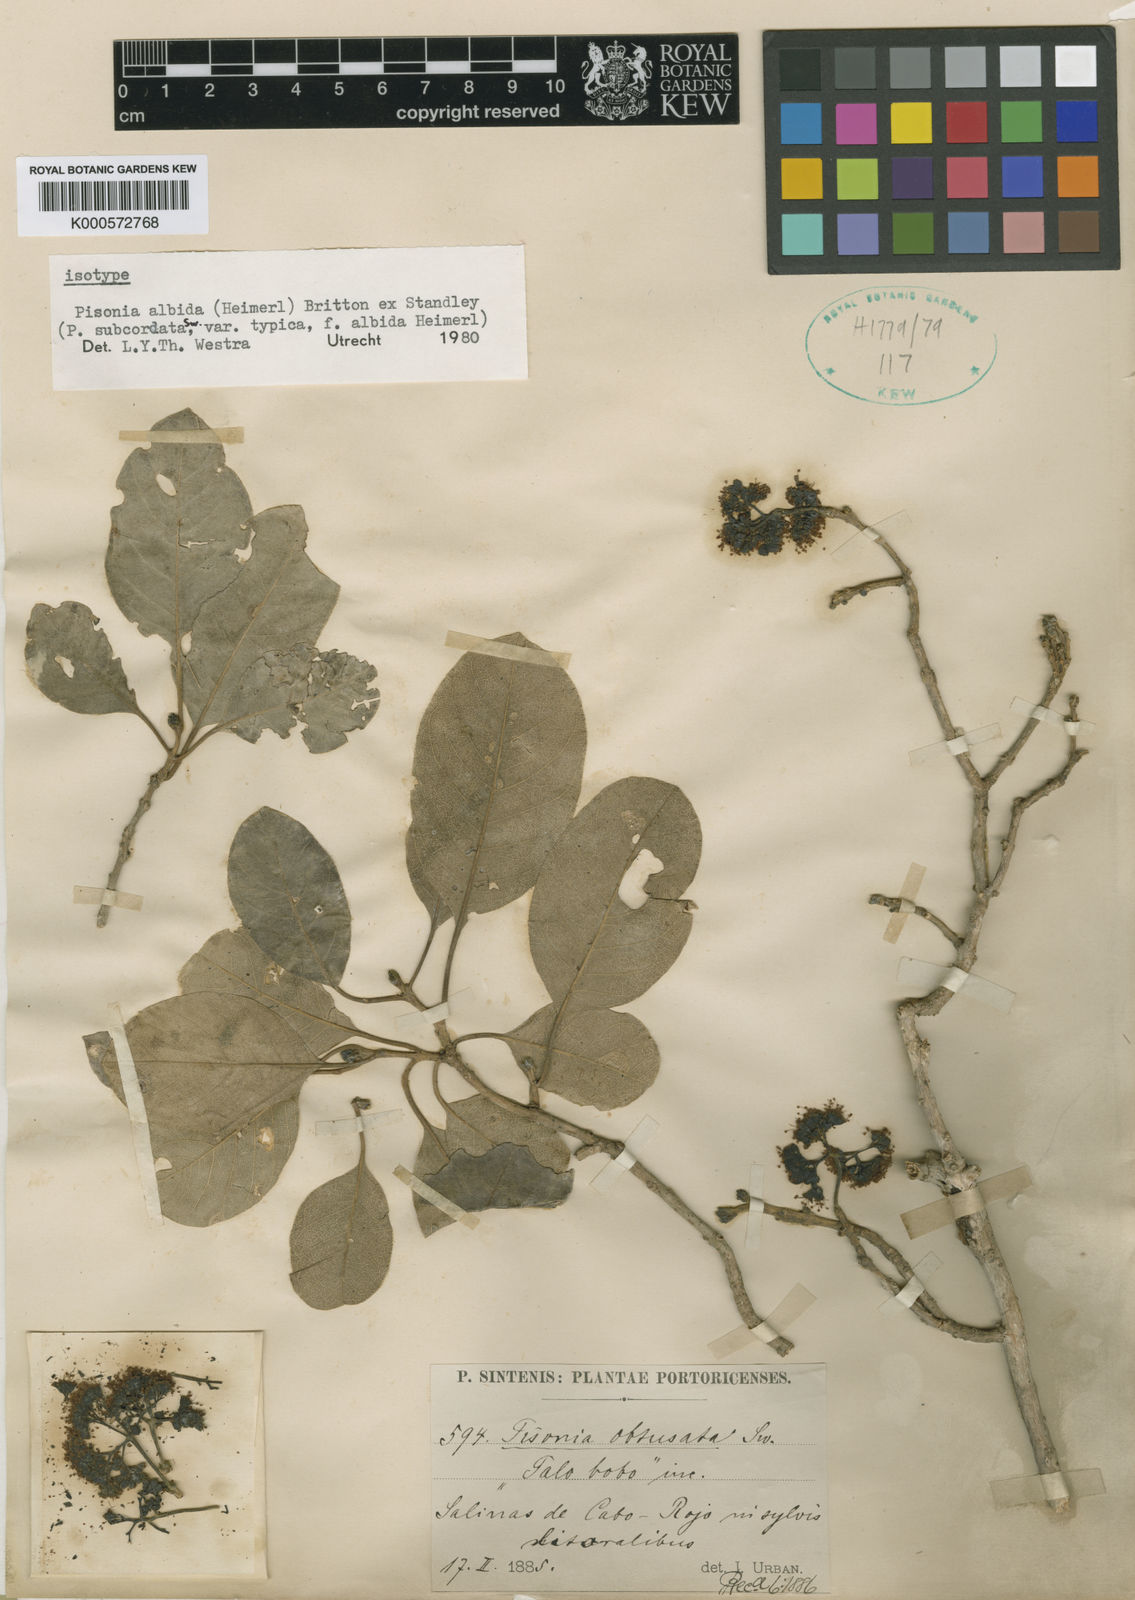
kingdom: Plantae
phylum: Tracheophyta
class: Magnoliopsida
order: Caryophyllales
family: Nyctaginaceae
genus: Pisonia
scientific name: Pisonia
